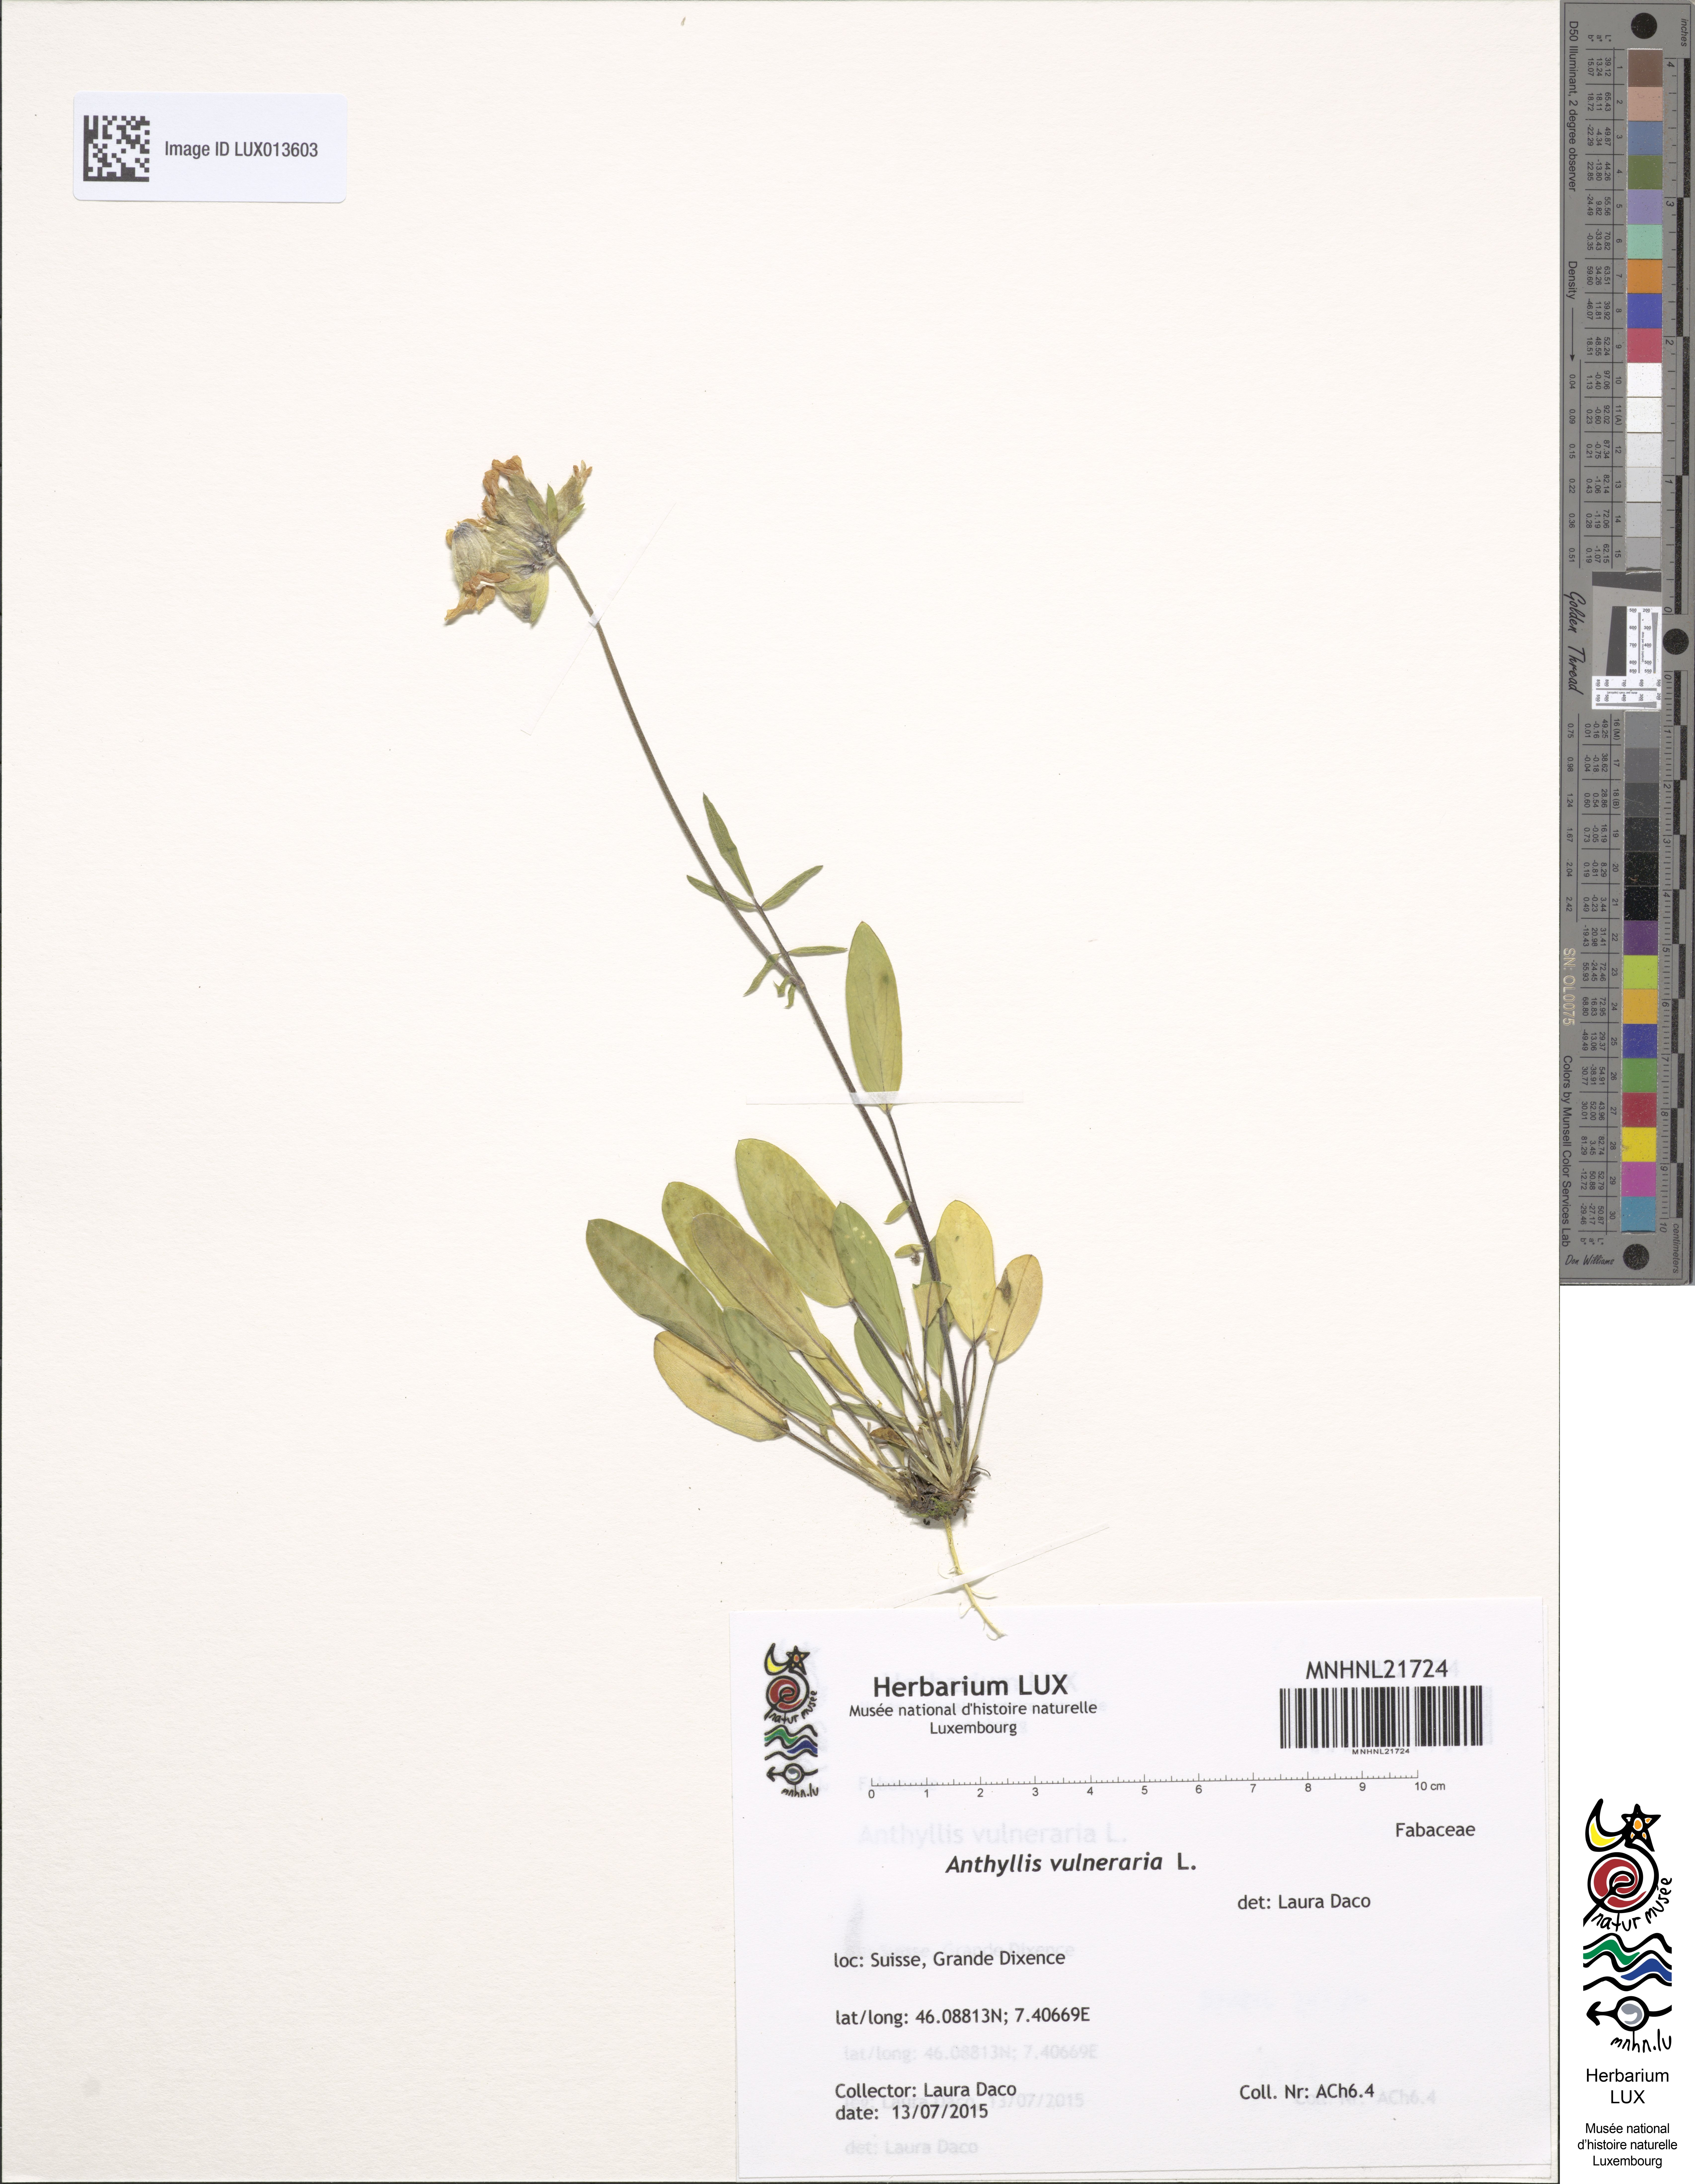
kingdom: Plantae
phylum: Tracheophyta
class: Magnoliopsida
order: Fabales
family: Fabaceae
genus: Anthyllis
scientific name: Anthyllis vulneraria
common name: Kidney vetch
